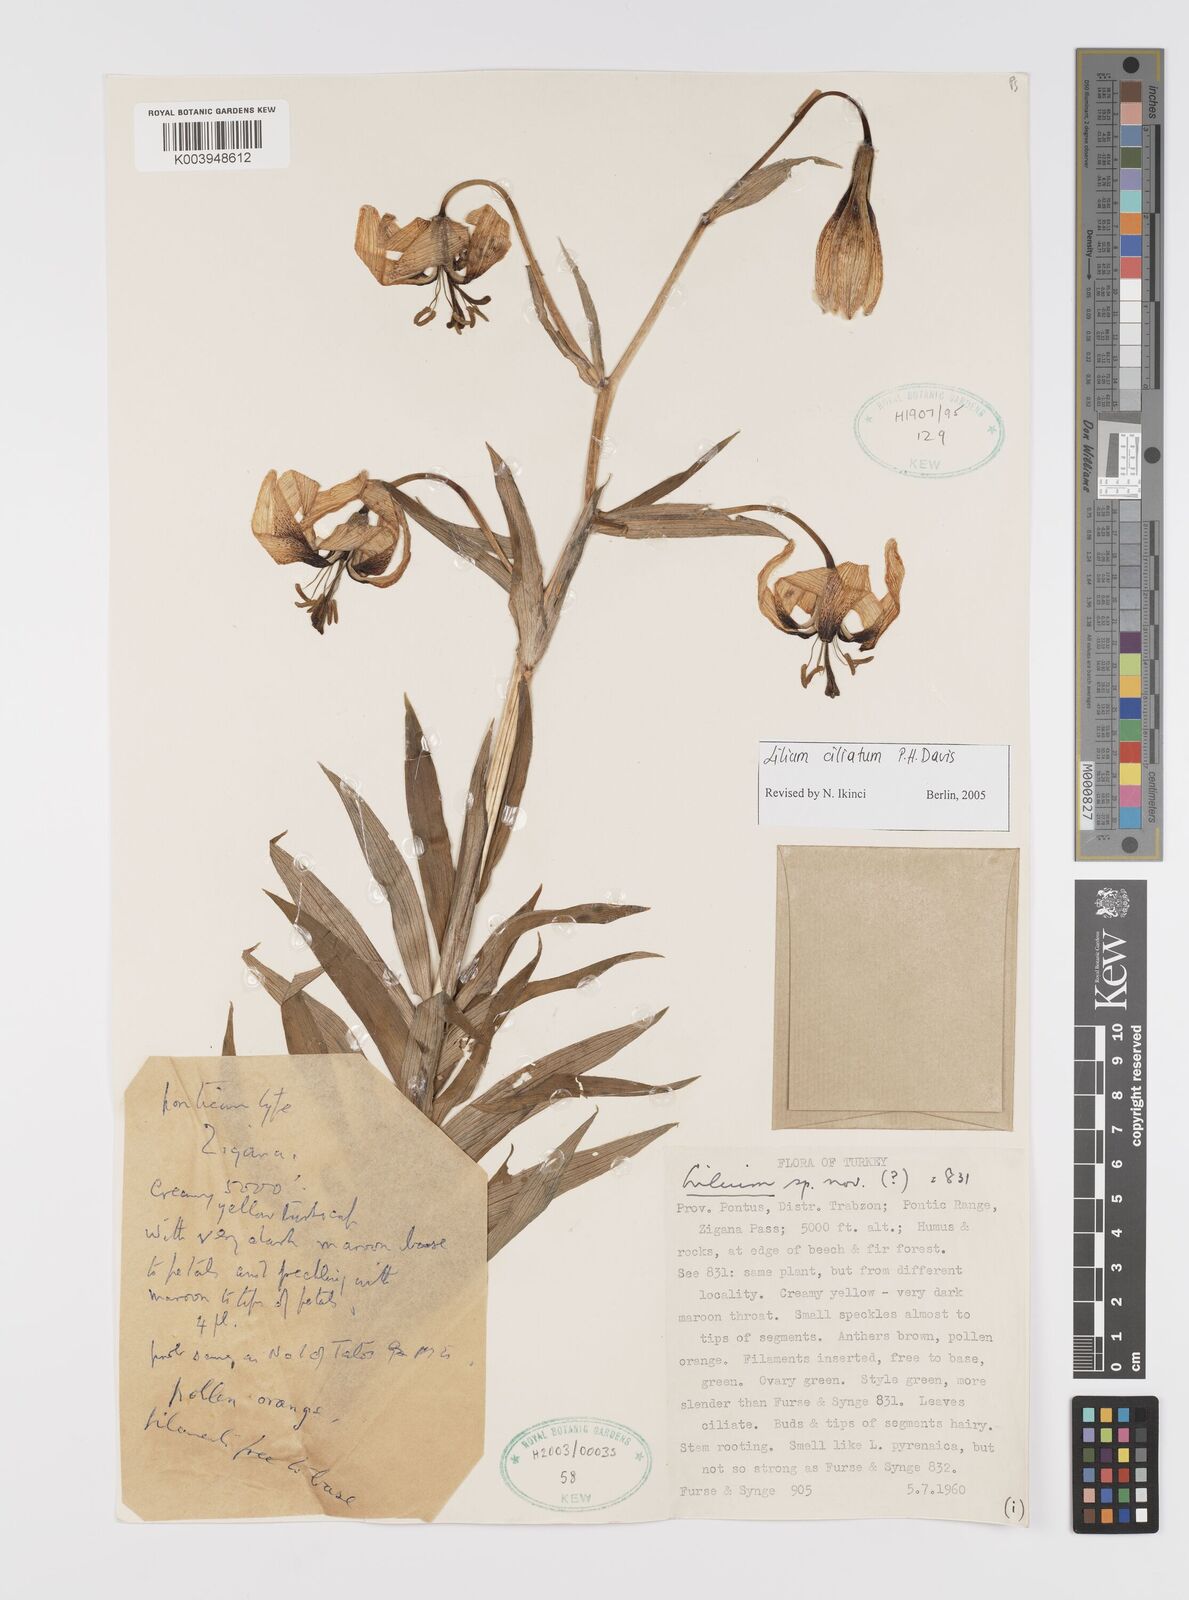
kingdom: Plantae
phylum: Tracheophyta
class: Liliopsida
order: Liliales
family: Liliaceae
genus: Lilium
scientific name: Lilium ciliatum
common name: Ciliate lily
